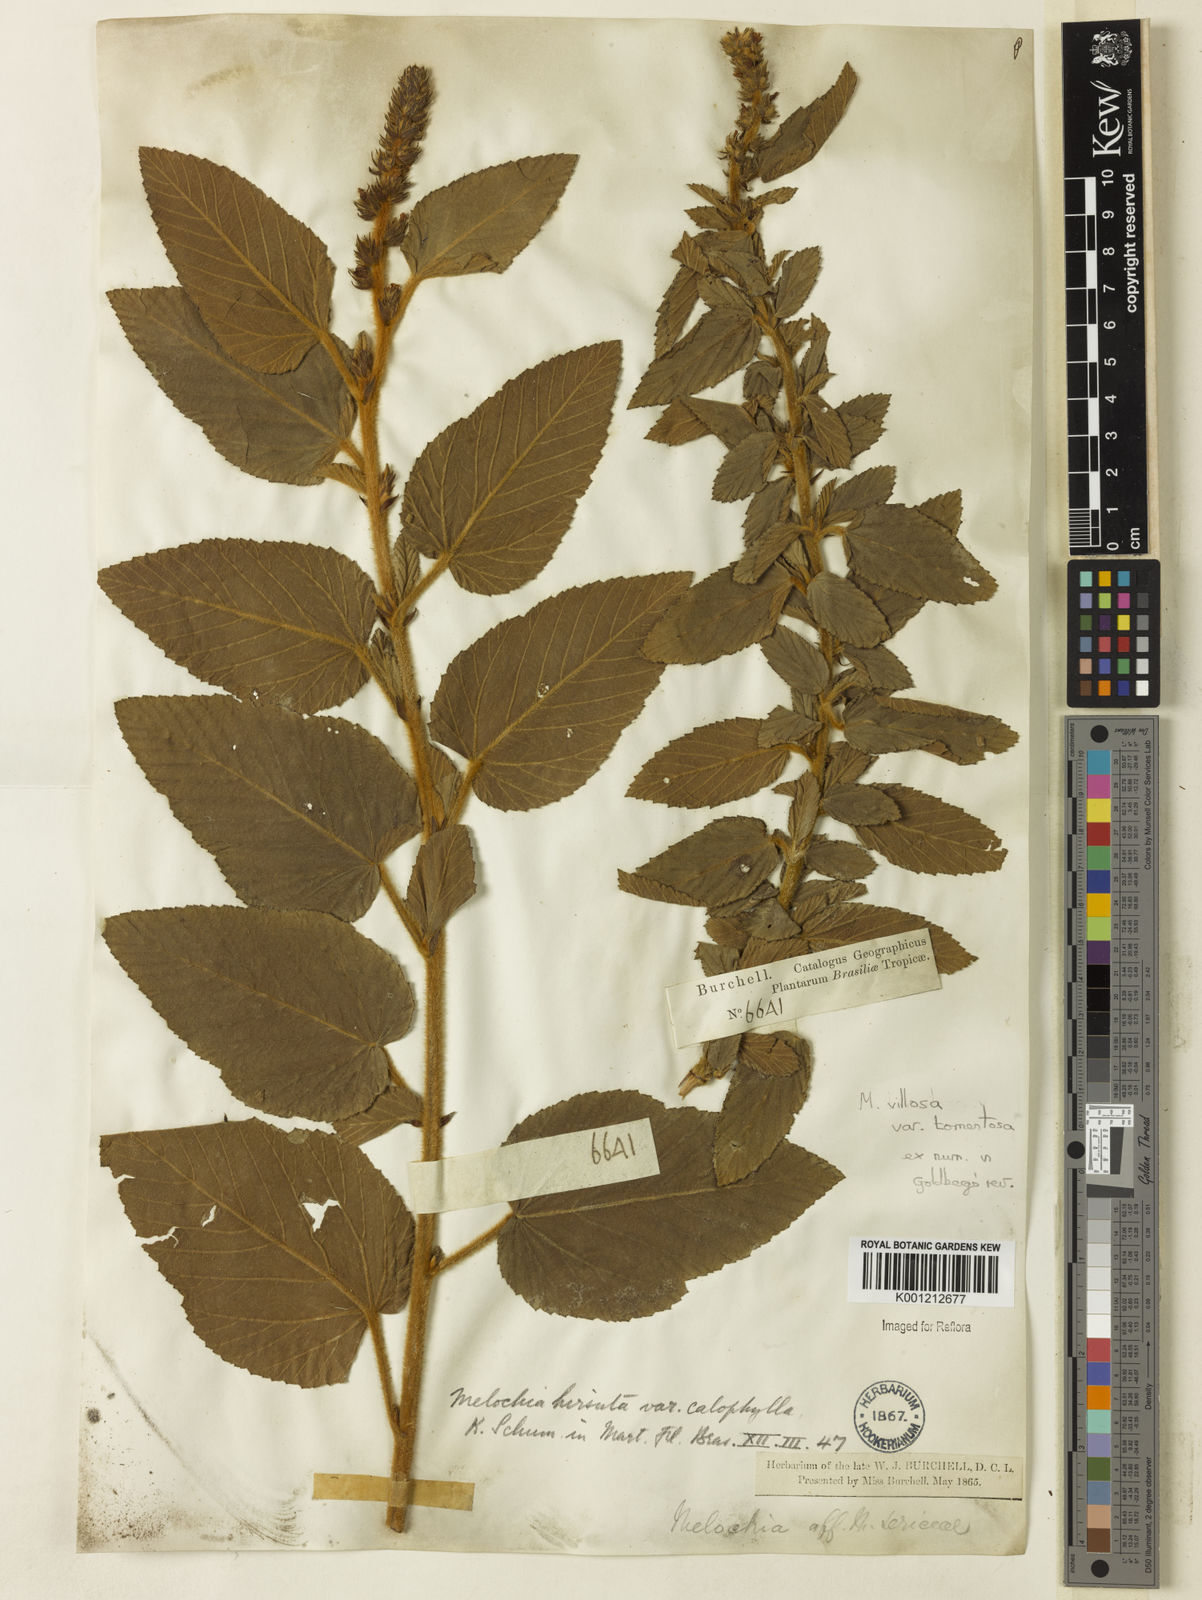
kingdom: Plantae
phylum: Tracheophyta
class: Magnoliopsida
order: Malvales
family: Malvaceae
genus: Melochia
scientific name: Melochia spicata
